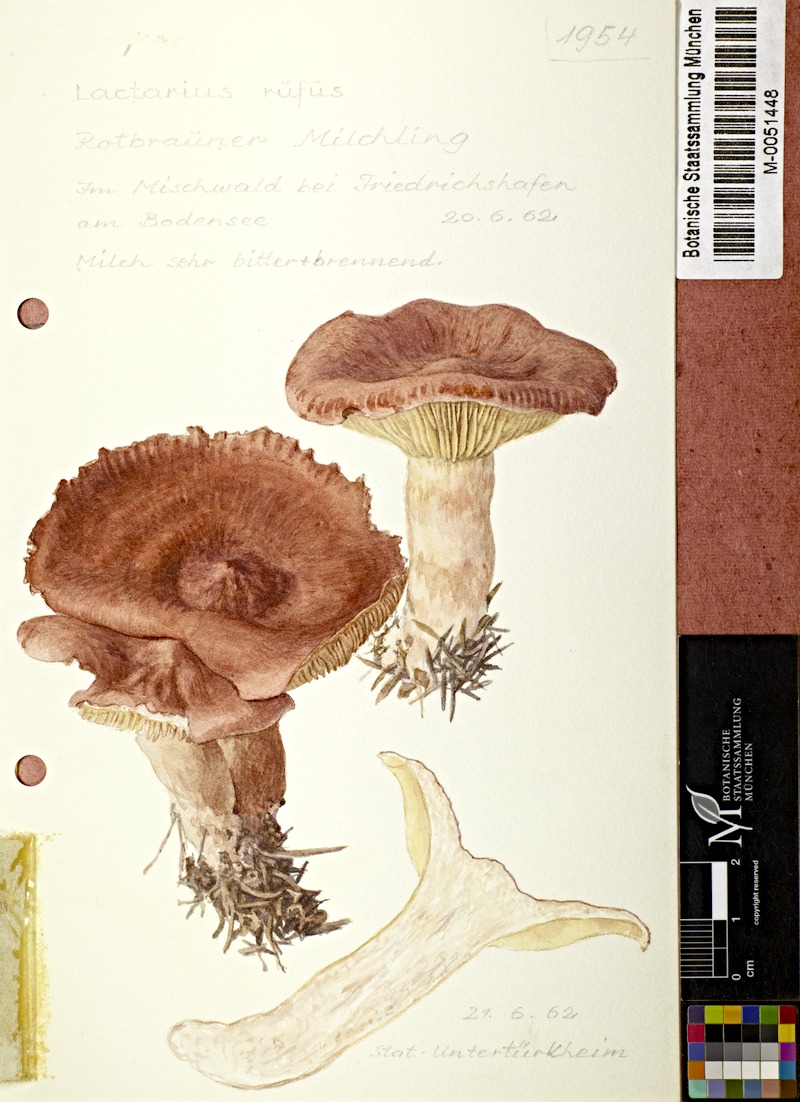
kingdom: Fungi
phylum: Basidiomycota
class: Agaricomycetes
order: Russulales
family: Russulaceae
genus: Lactarius
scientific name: Lactarius rufus
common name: Rufous milk-cap
